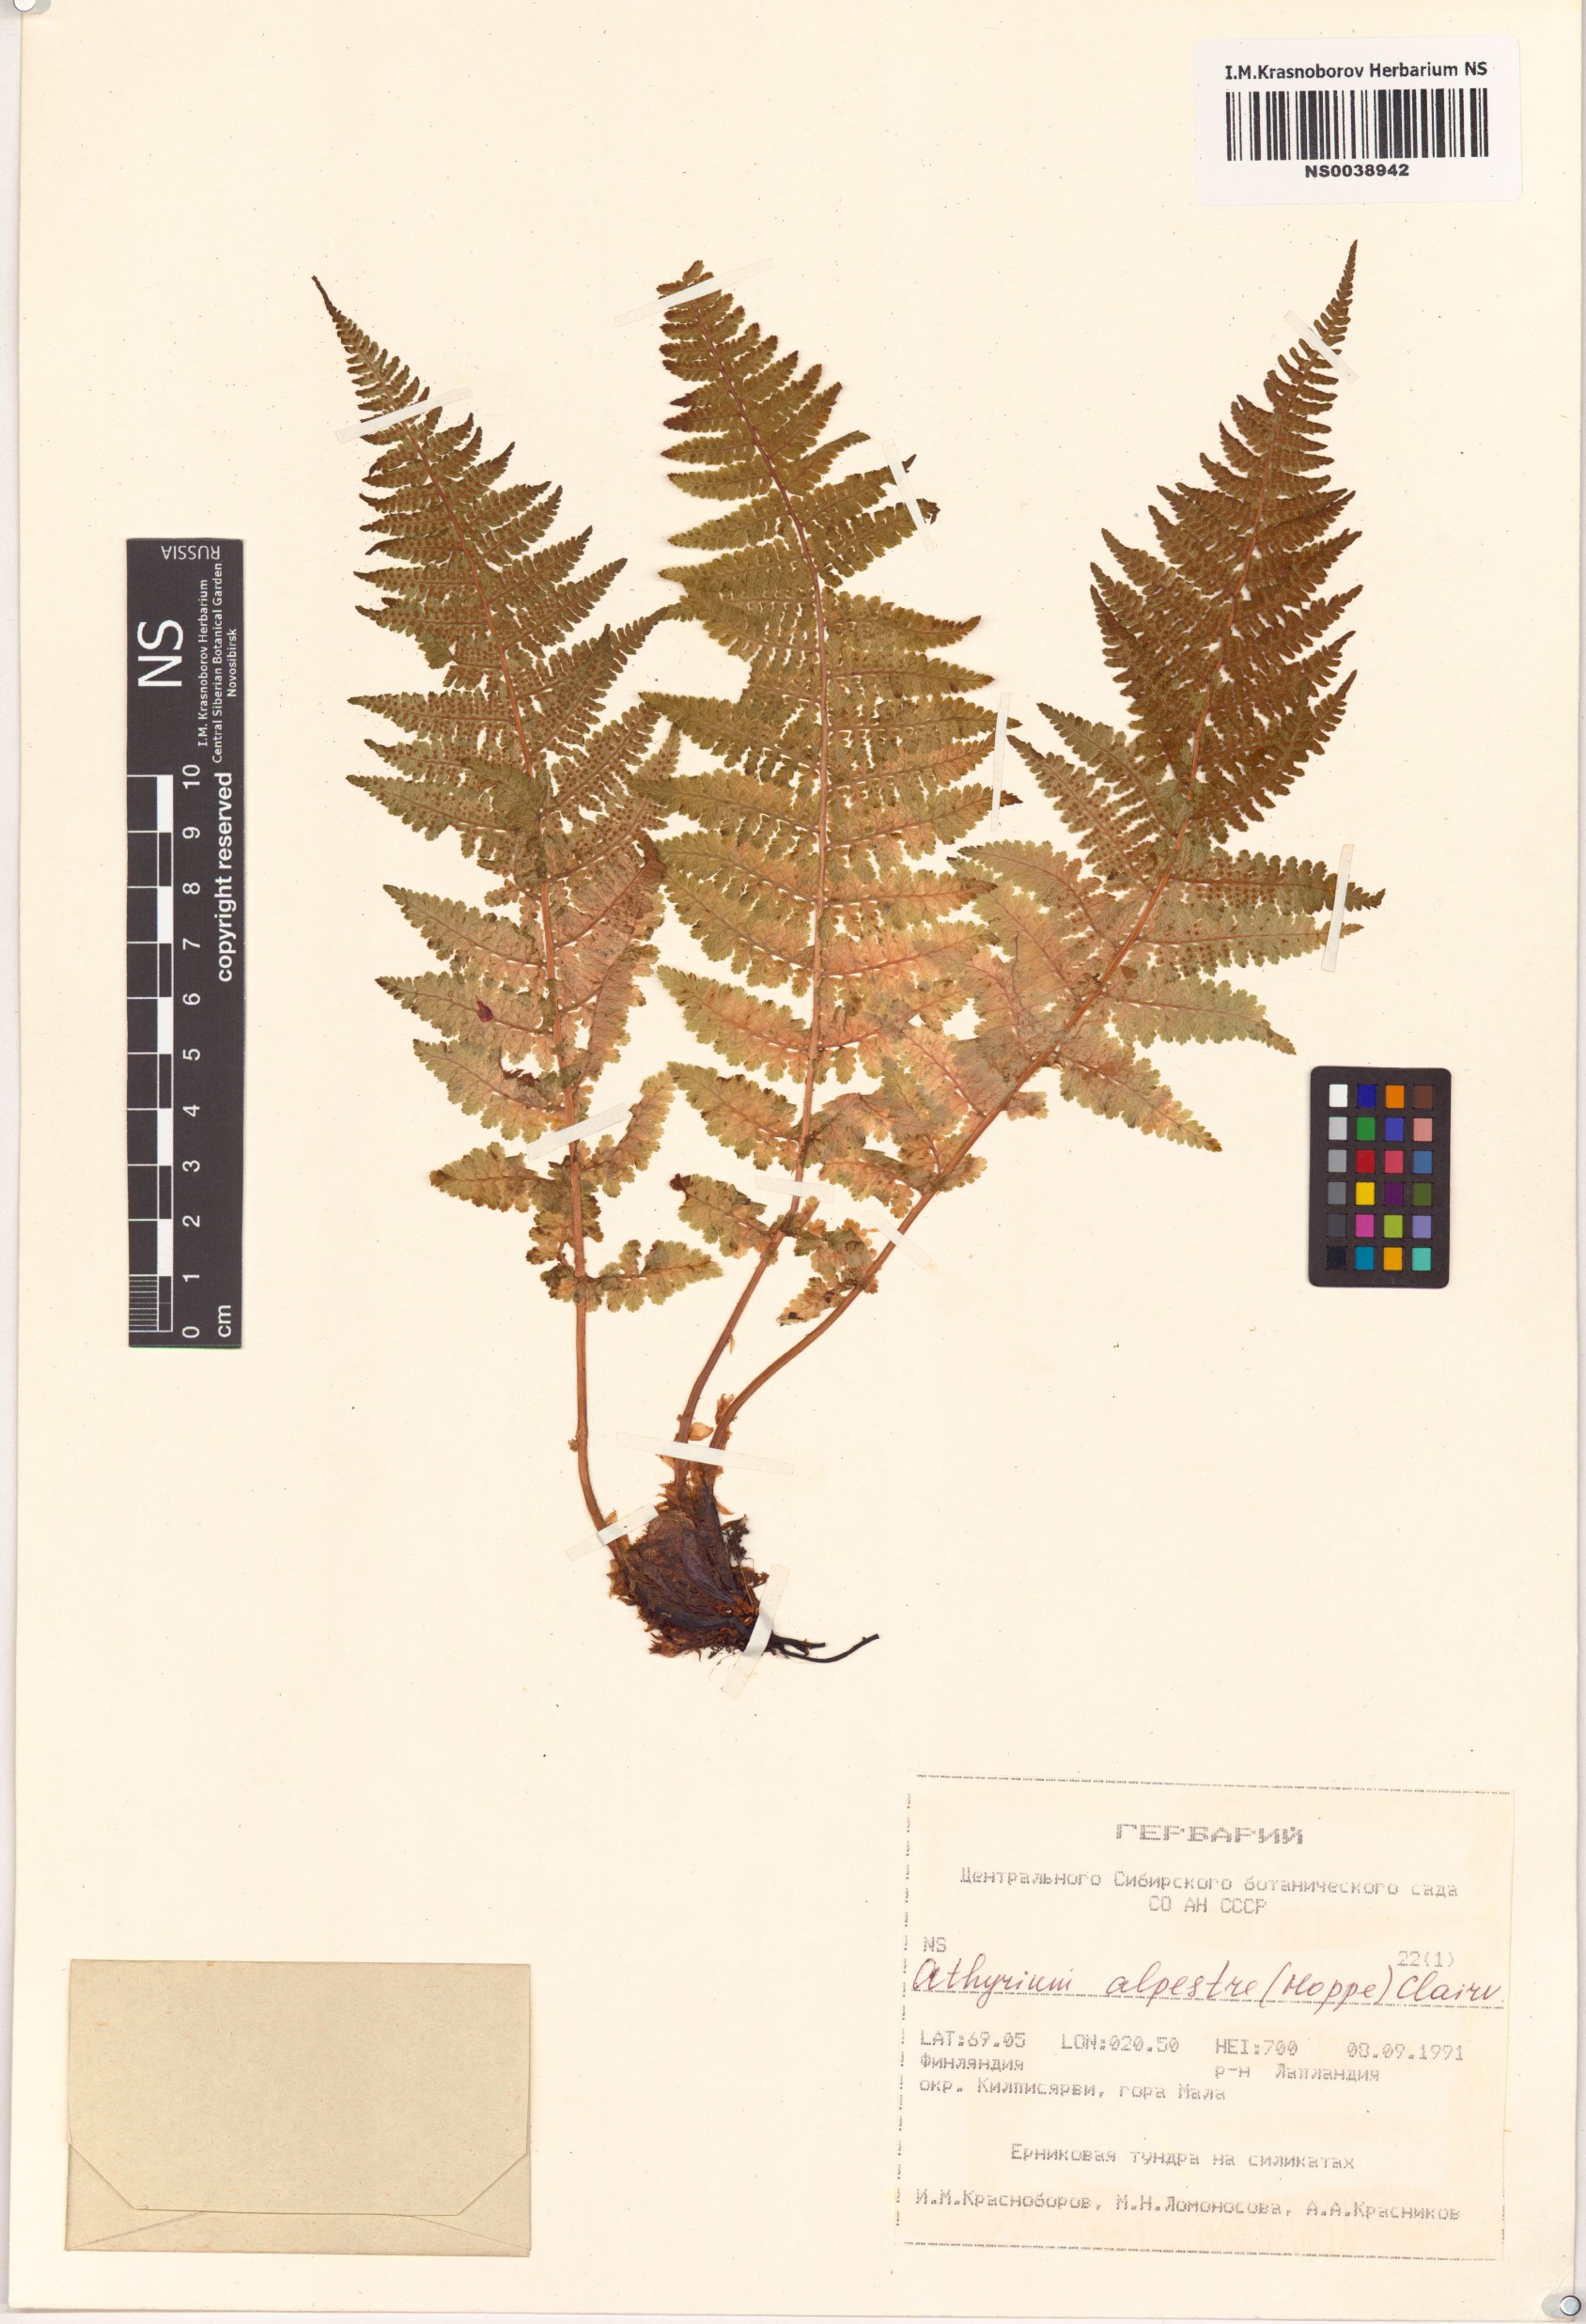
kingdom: Plantae
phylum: Tracheophyta
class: Polypodiopsida
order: Polypodiales
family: Athyriaceae
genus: Pseudathyrium
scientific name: Pseudathyrium alpestre
